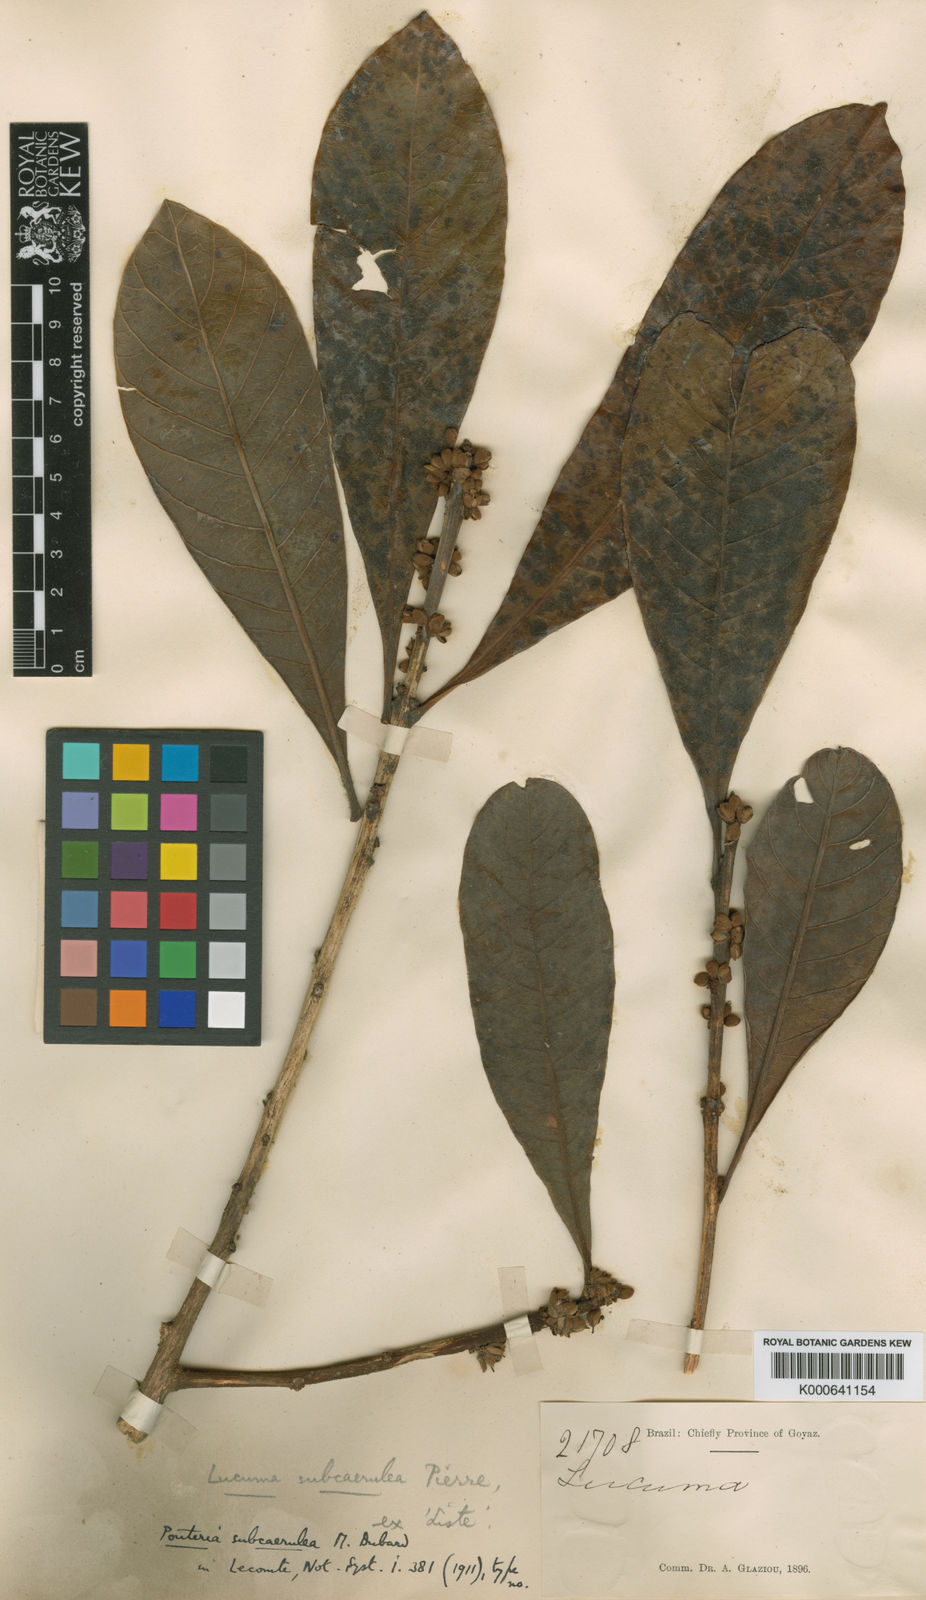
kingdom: Plantae
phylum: Tracheophyta
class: Magnoliopsida
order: Ericales
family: Sapotaceae
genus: Pouteria
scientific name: Pouteria subcaerulea
